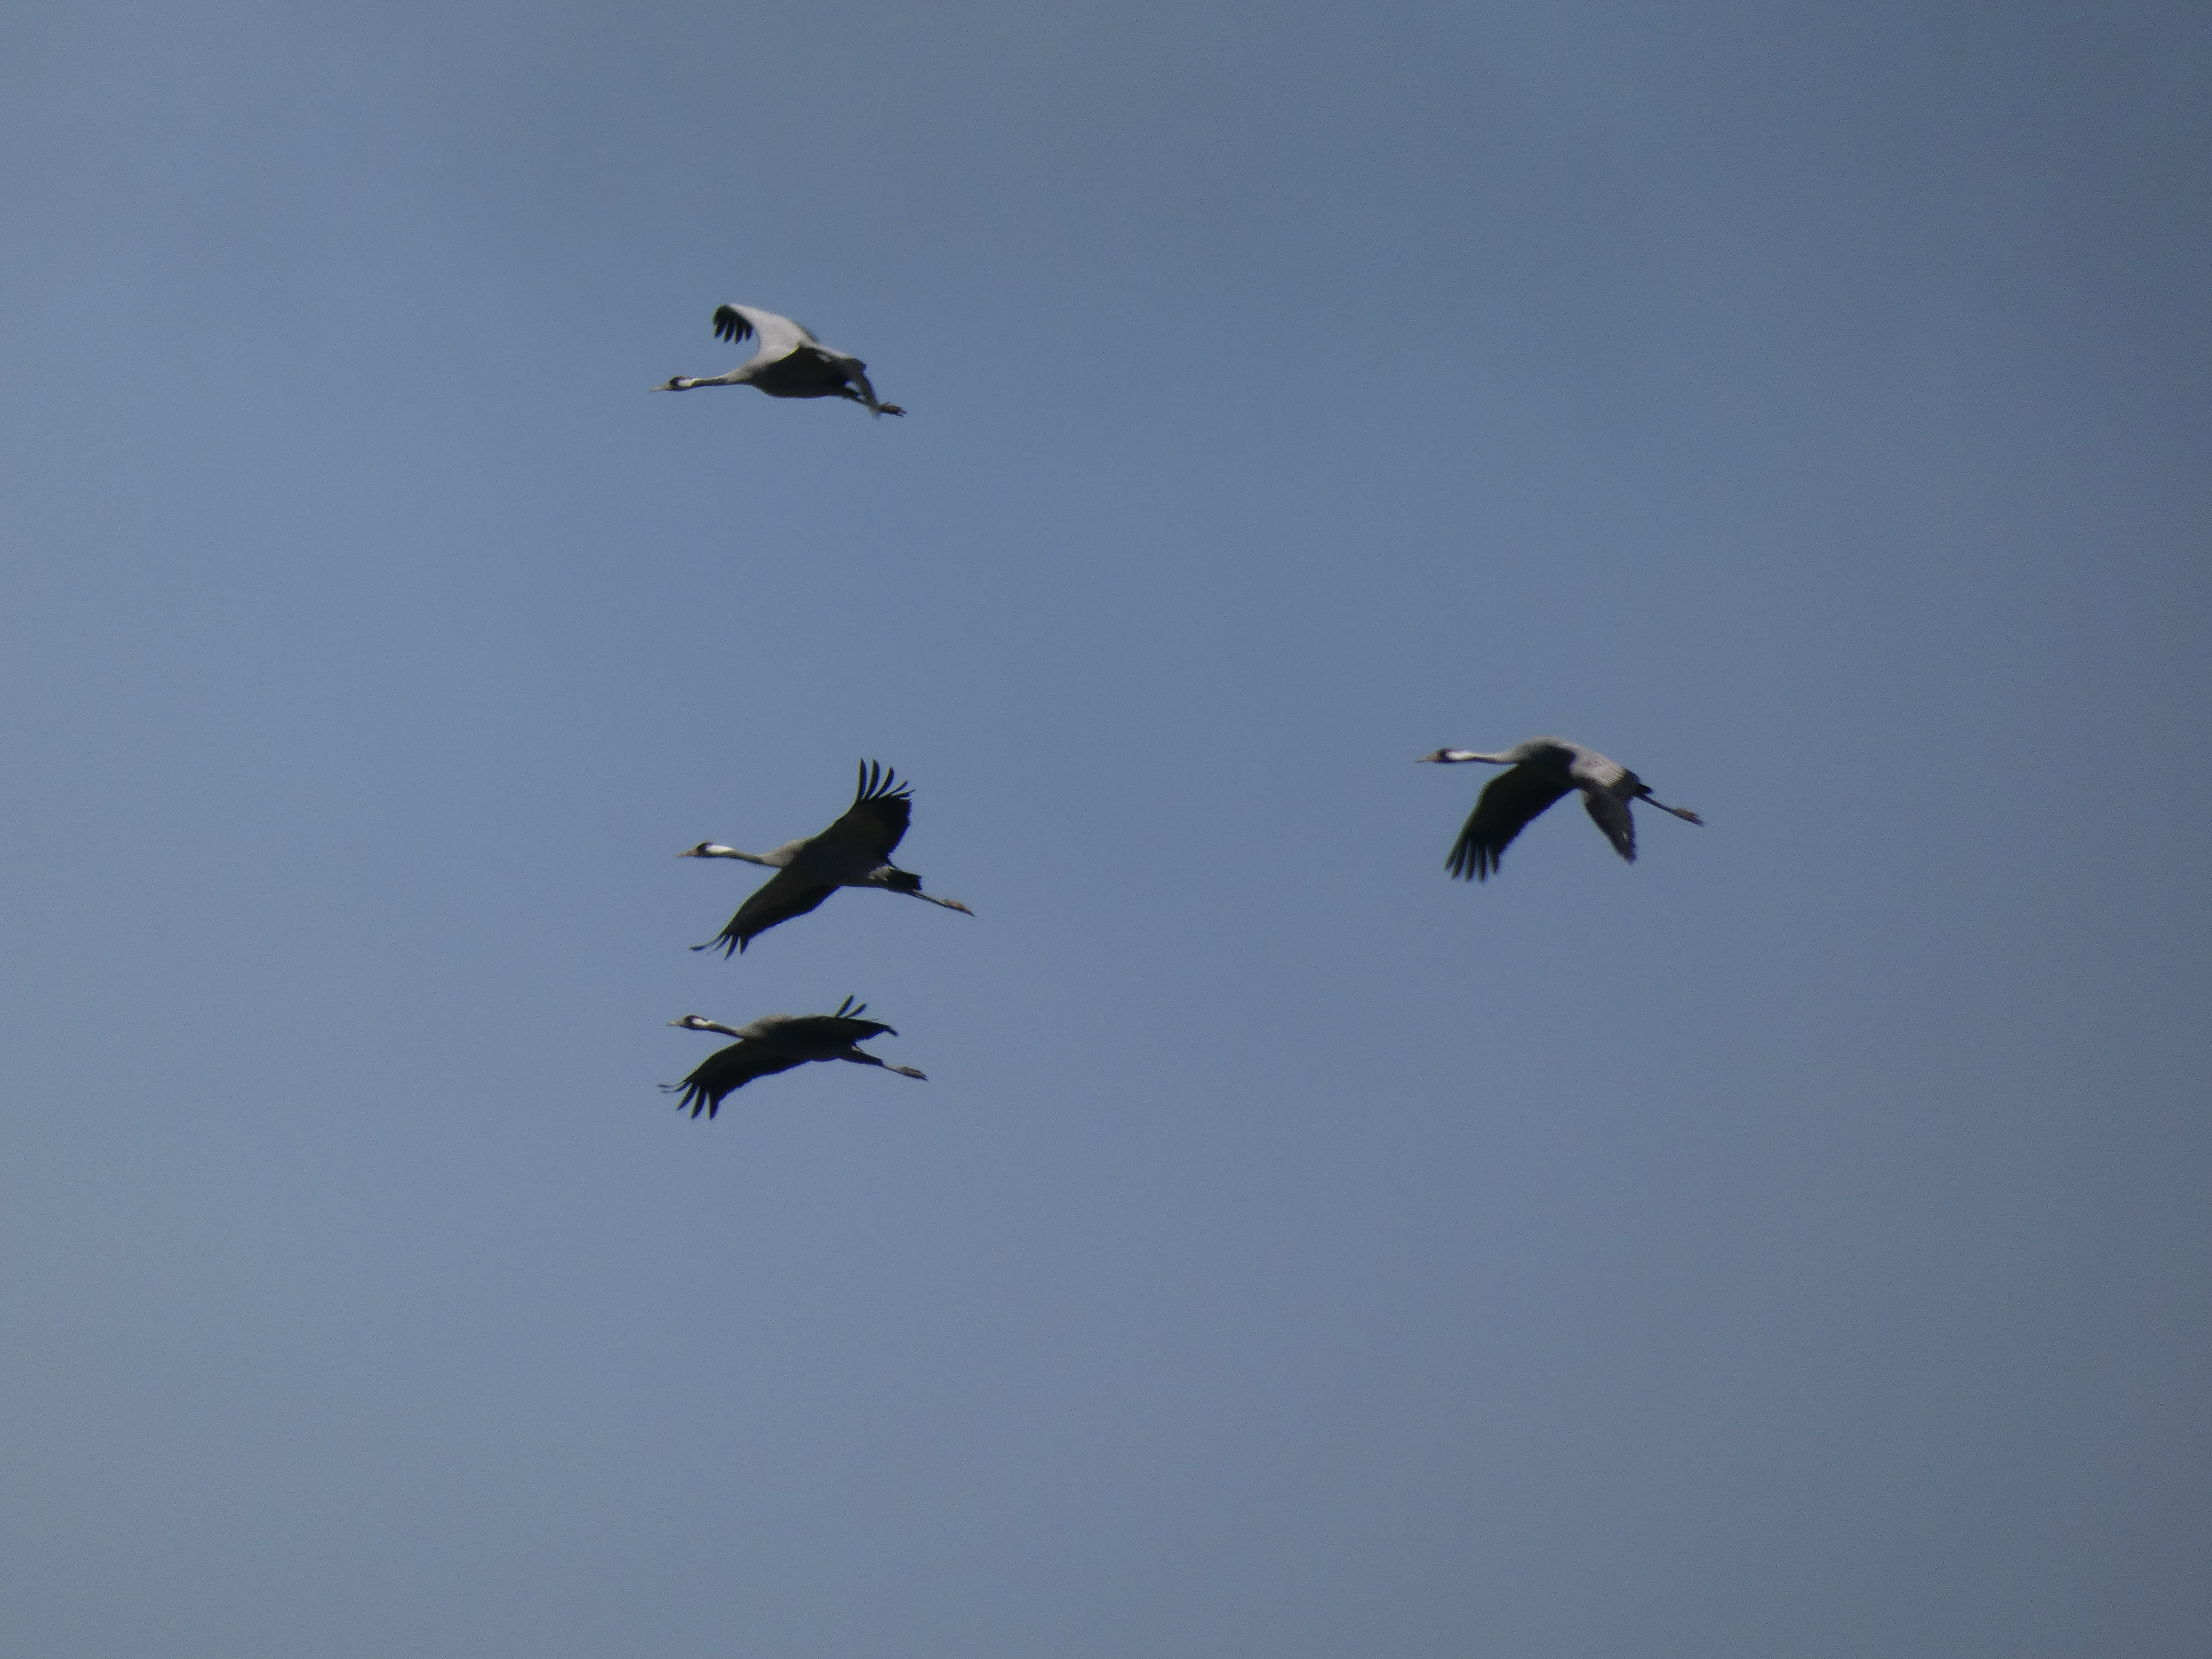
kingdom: Animalia
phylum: Chordata
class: Aves
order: Gruiformes
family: Gruidae
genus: Grus
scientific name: Grus grus
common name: Trane
